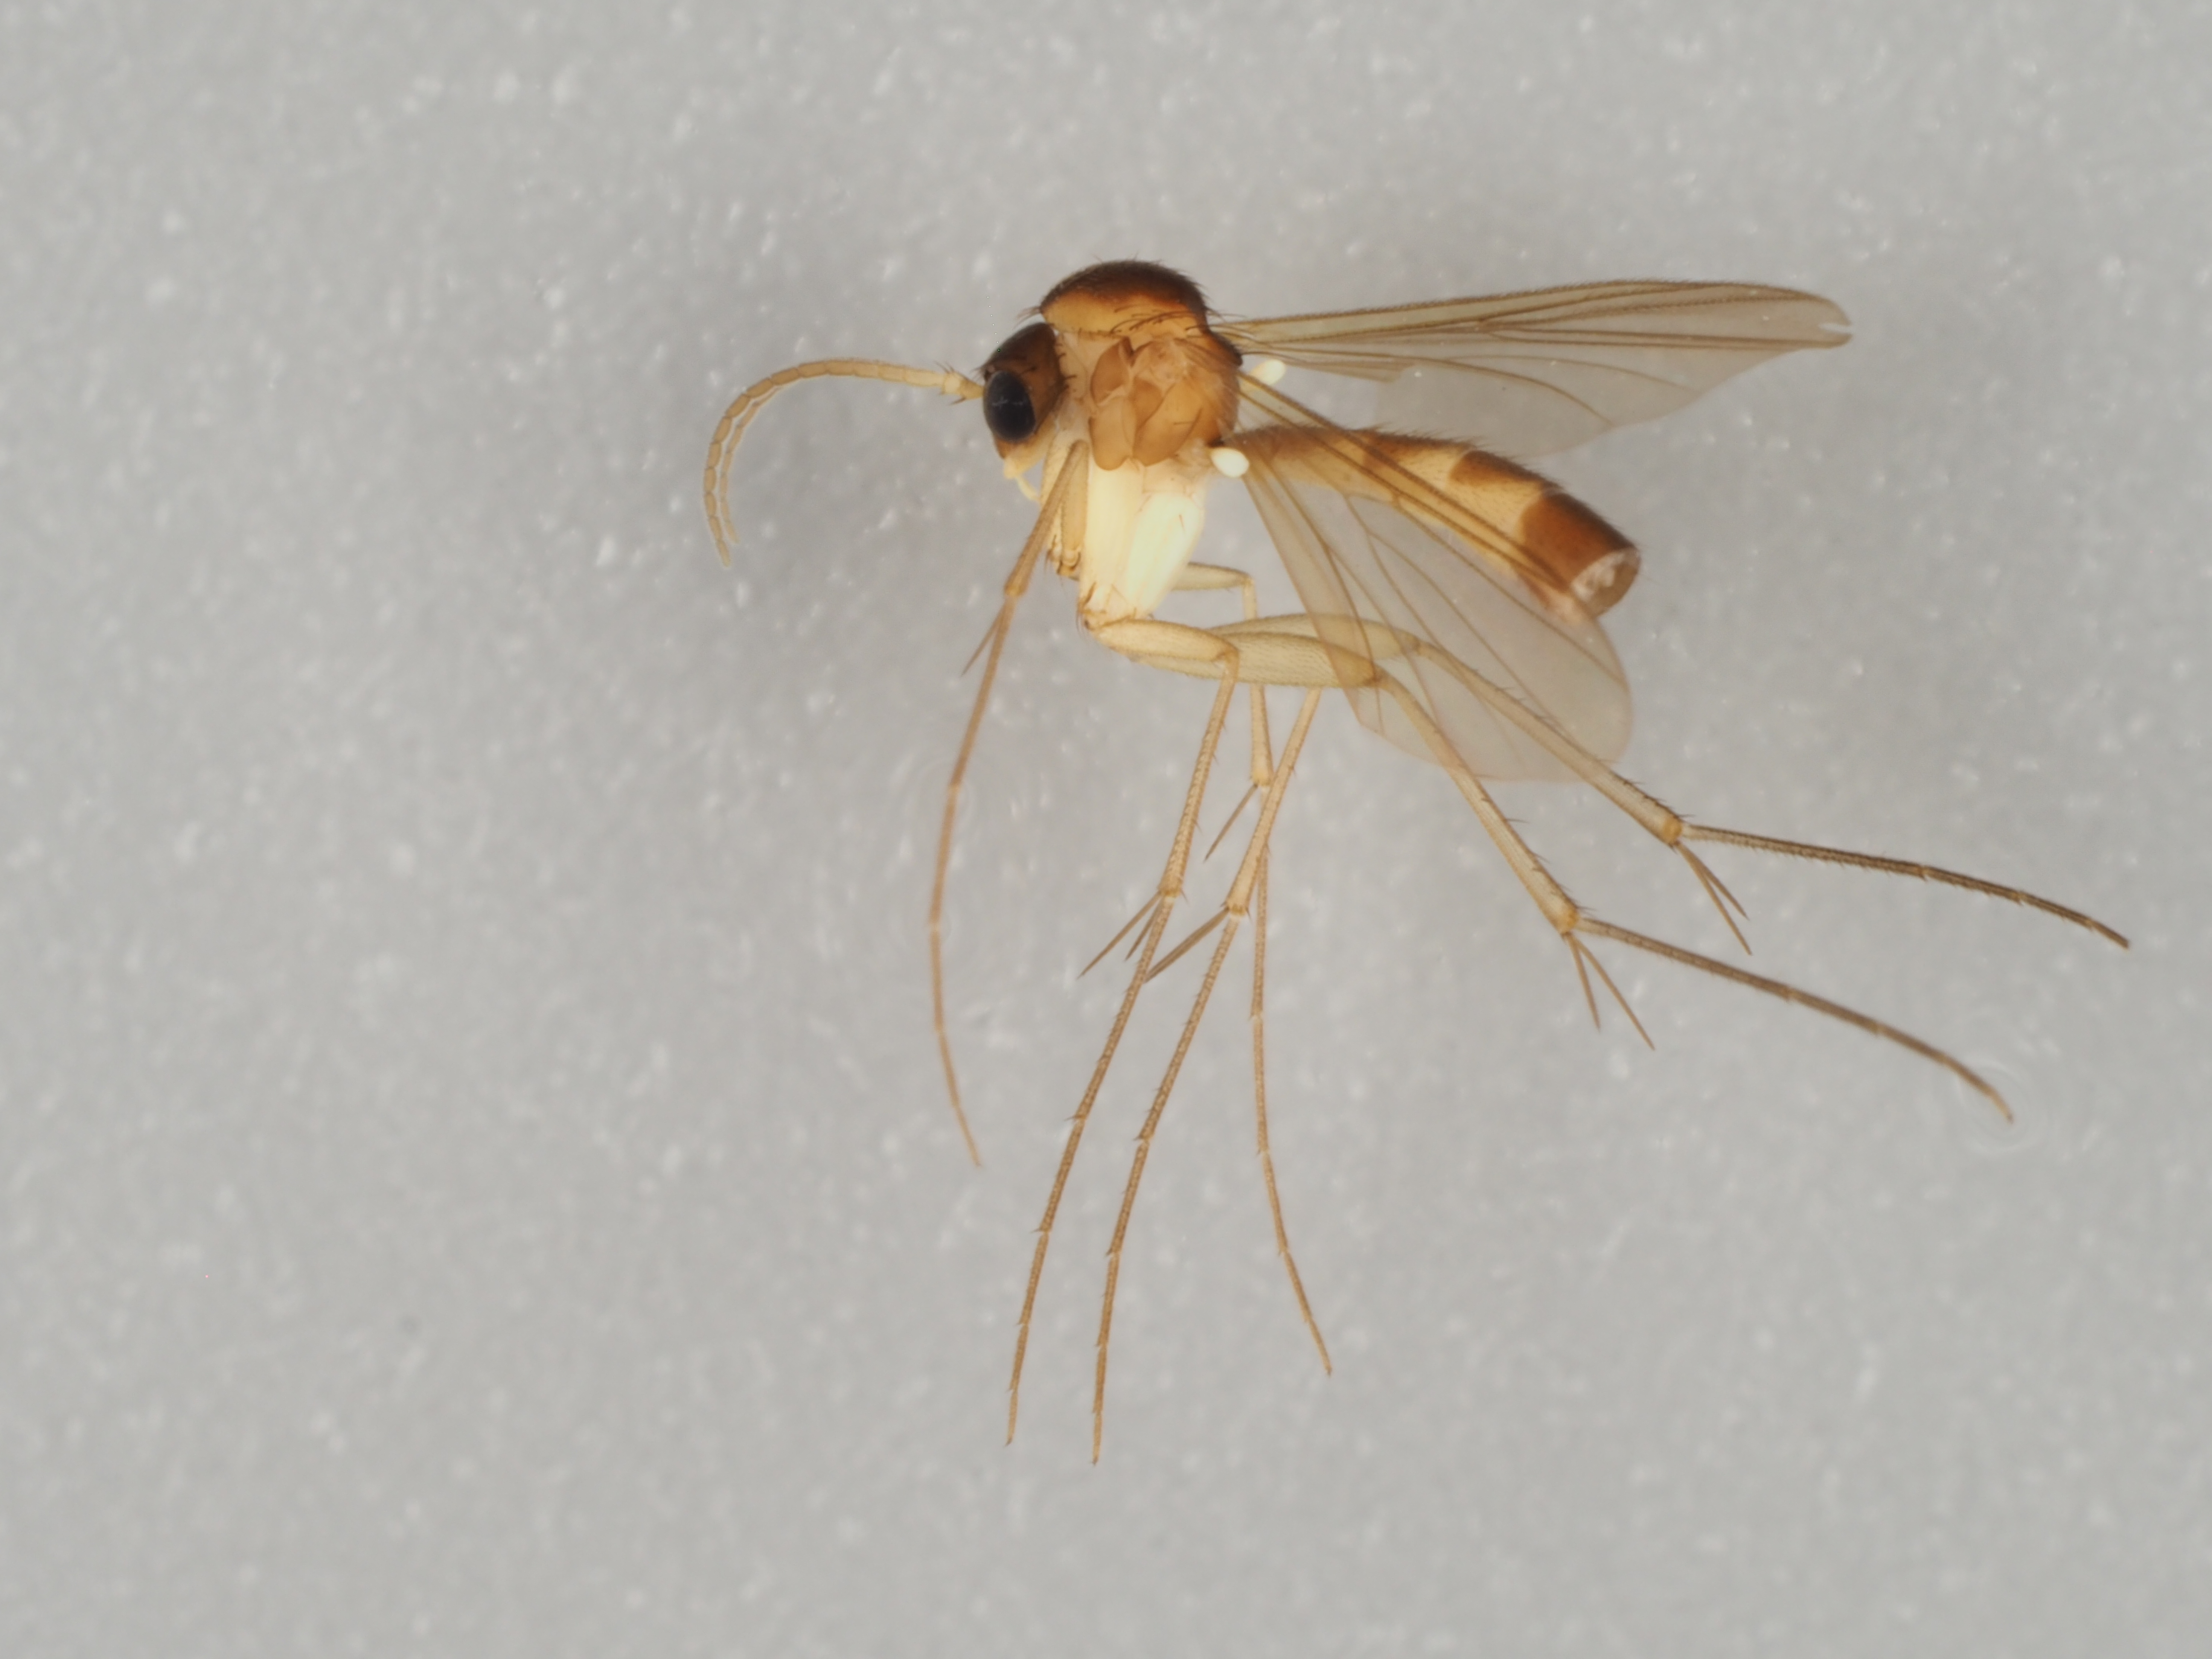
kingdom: Animalia
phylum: Arthropoda
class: Insecta
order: Diptera
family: Mycetophilidae
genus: Allodia
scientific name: Allodia ornaticollis
